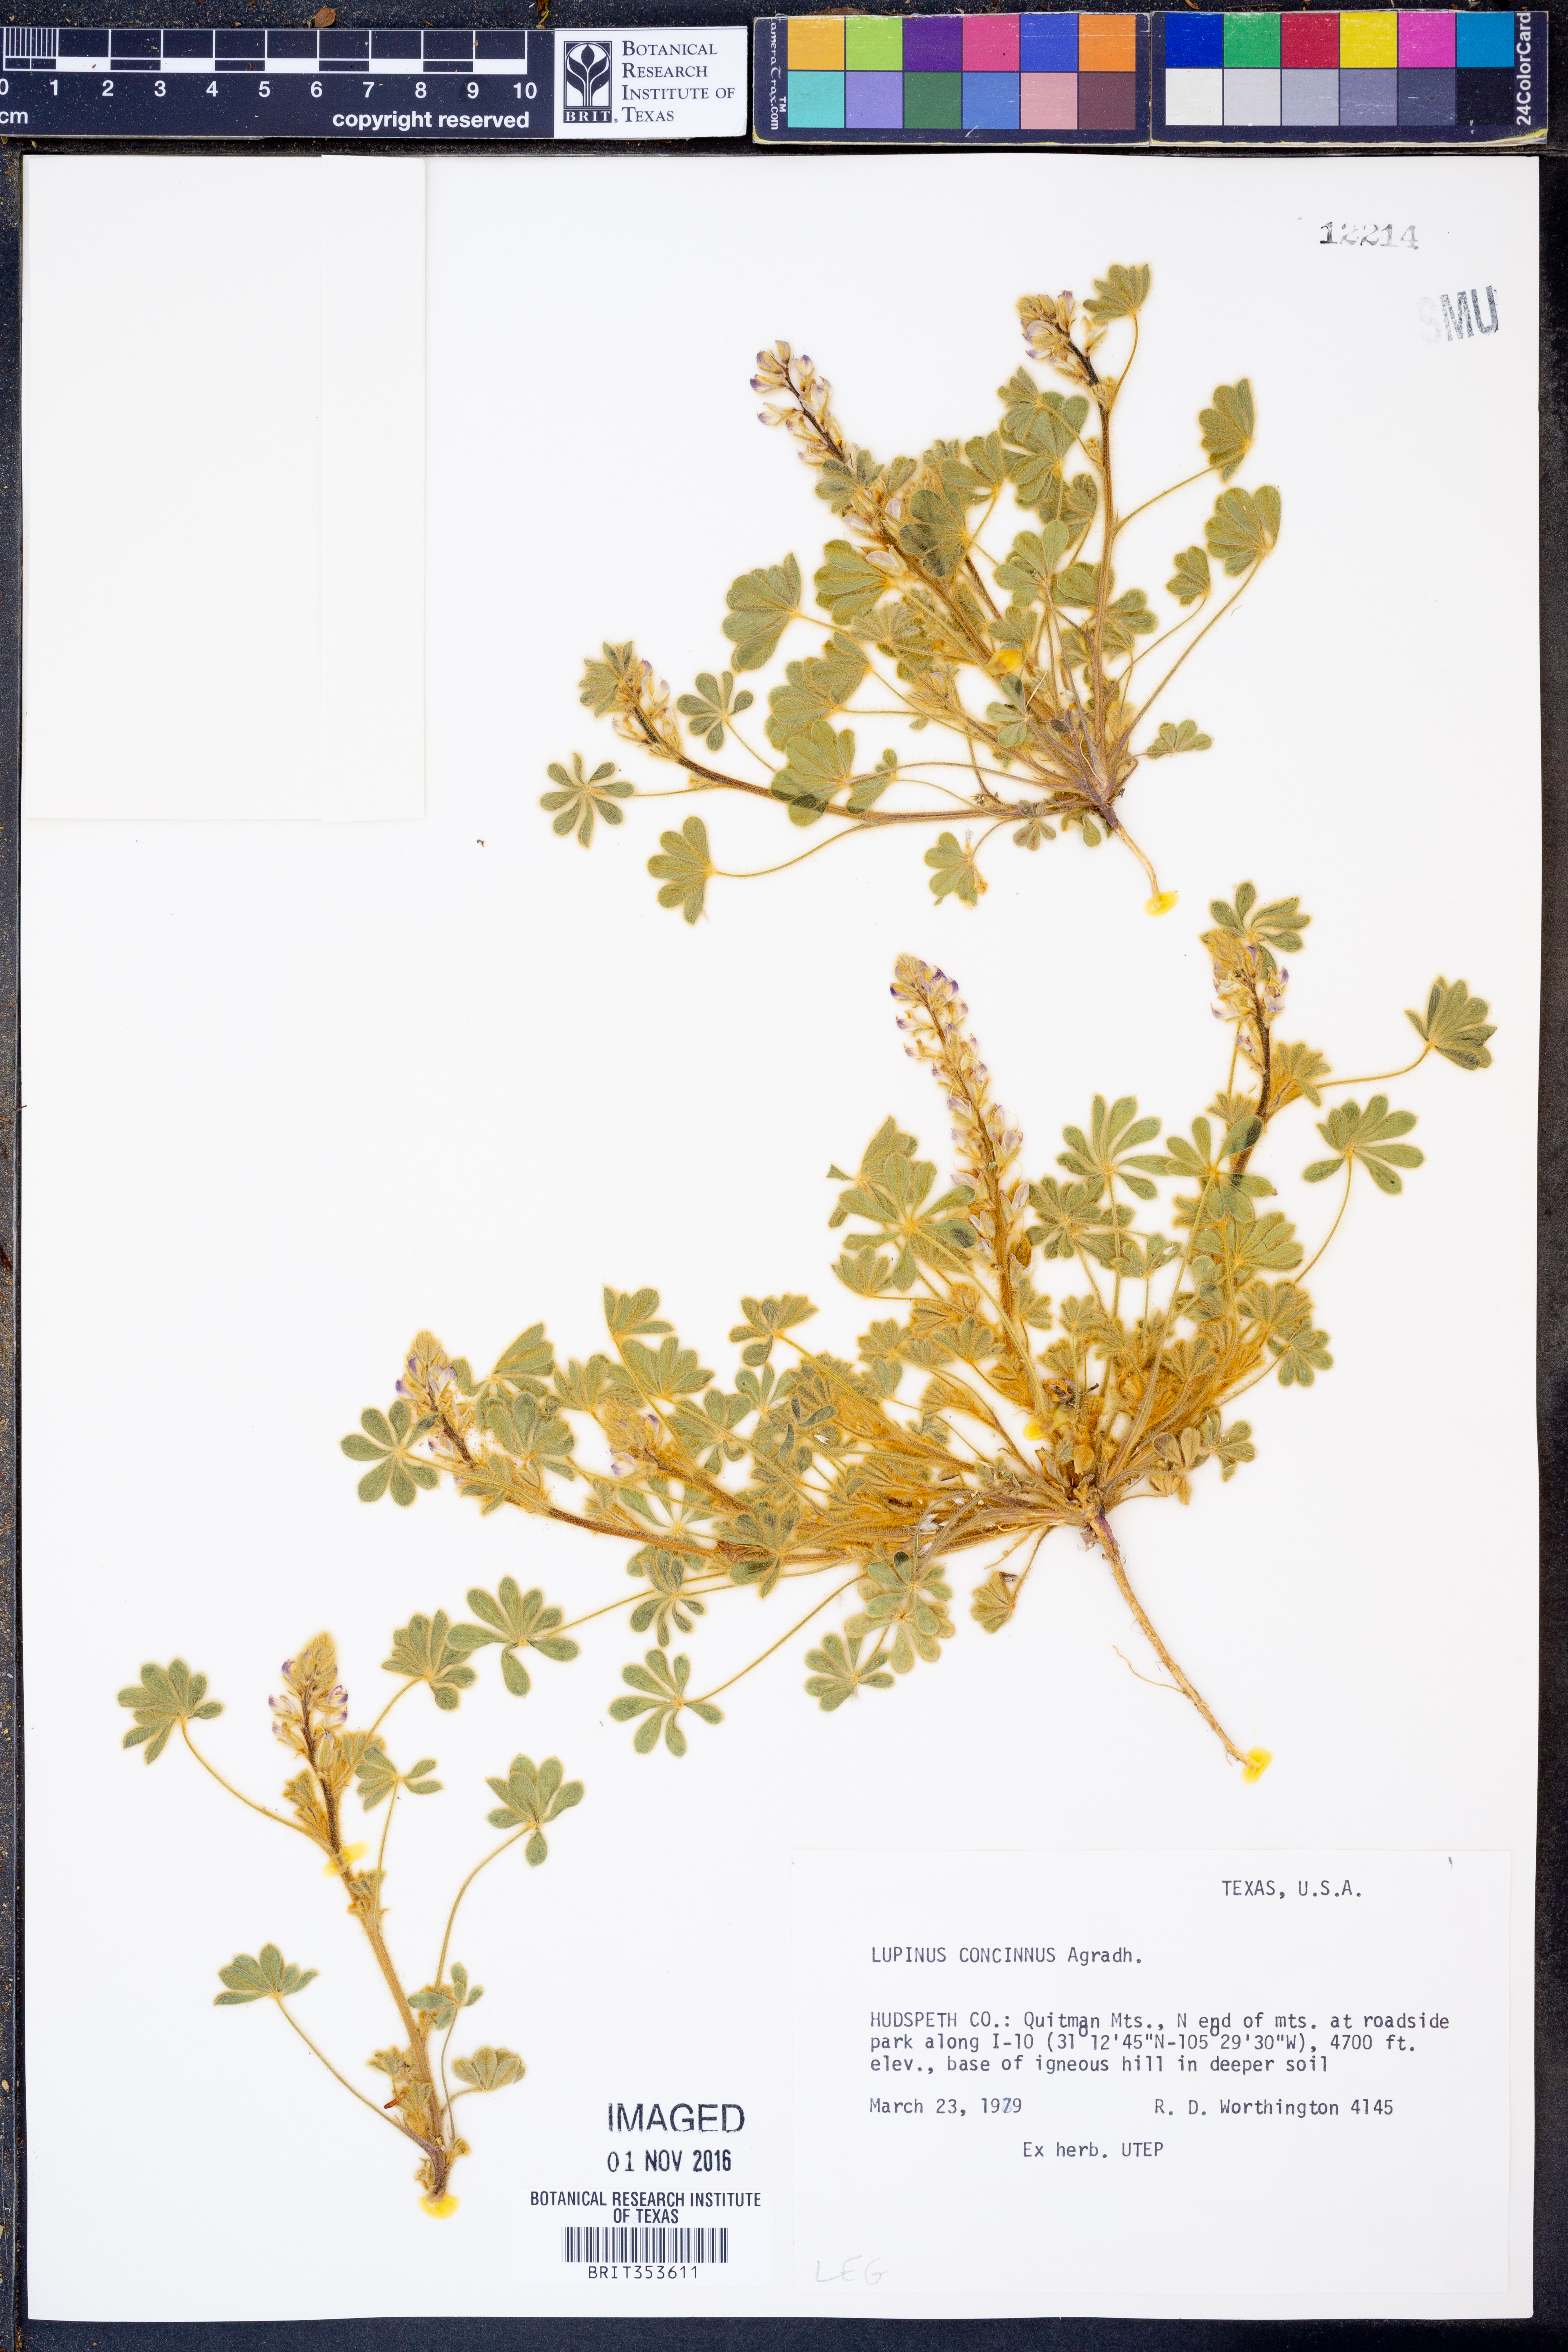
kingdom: Plantae
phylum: Tracheophyta
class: Magnoliopsida
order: Fabales
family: Fabaceae
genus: Lupinus
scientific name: Lupinus concinnus
